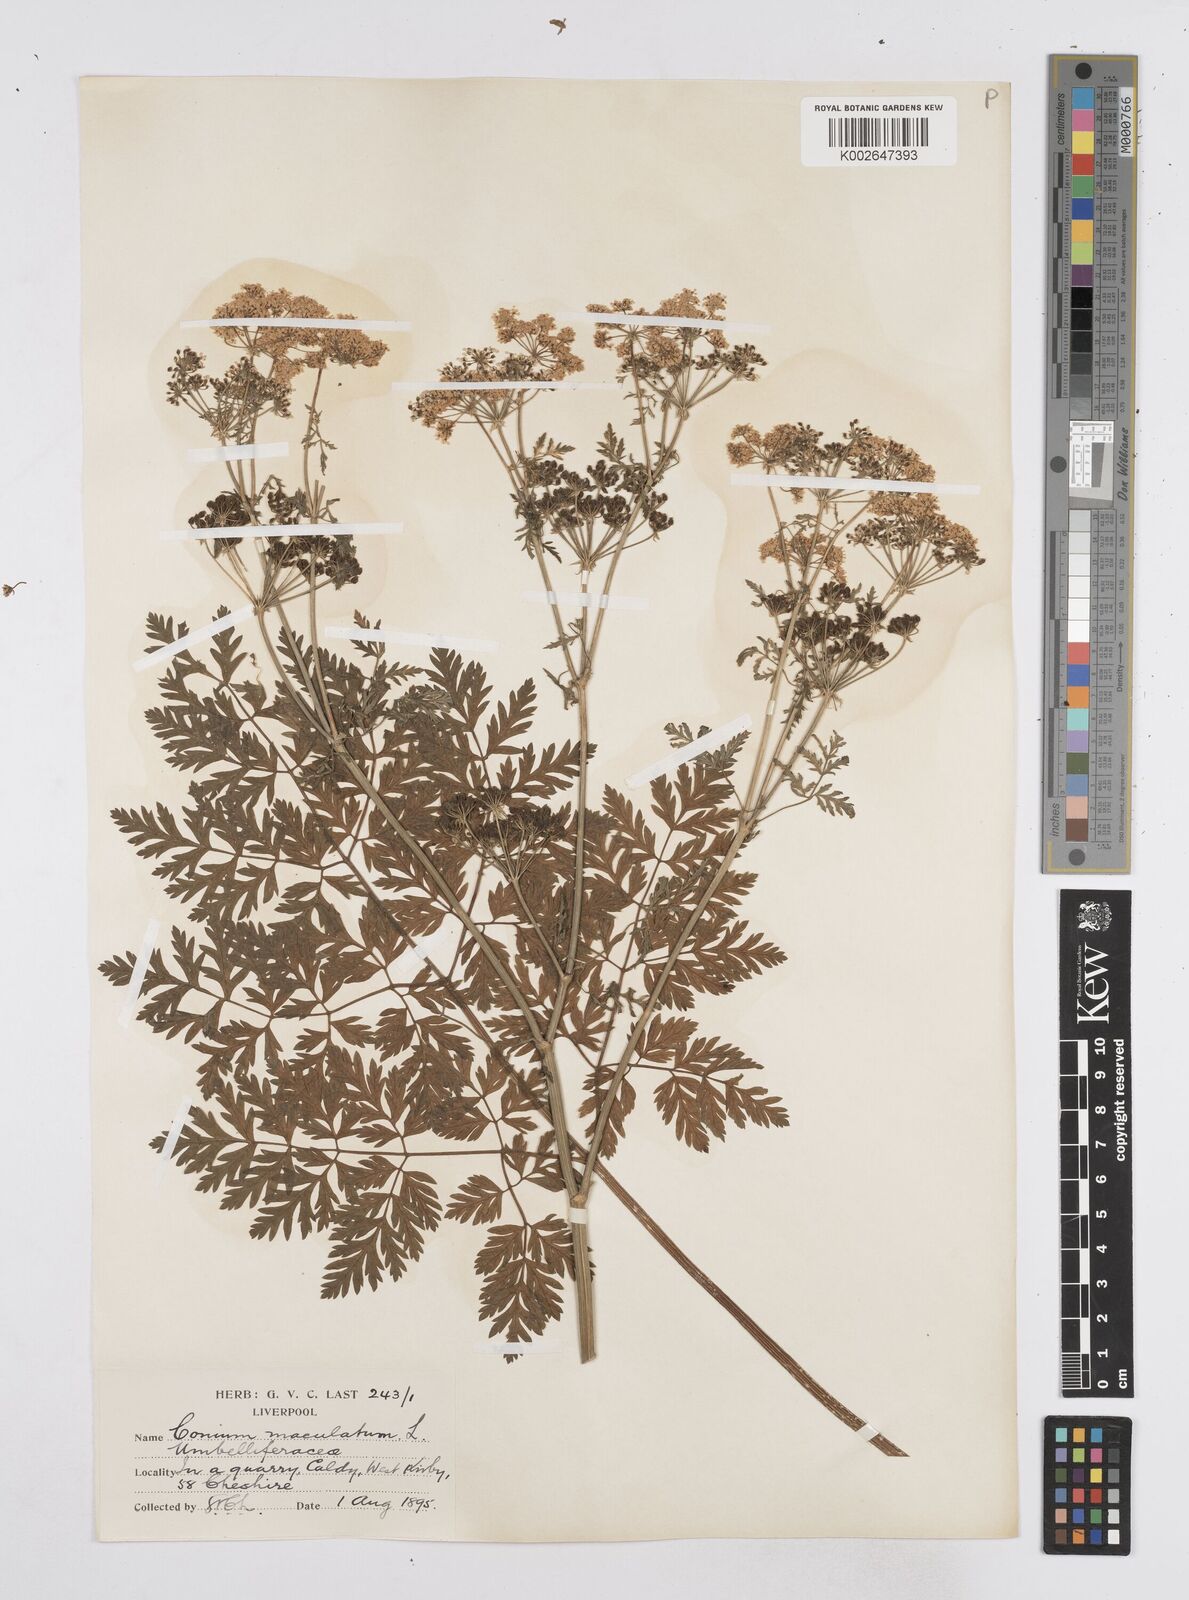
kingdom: Plantae
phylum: Tracheophyta
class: Magnoliopsida
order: Apiales
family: Apiaceae
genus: Conium
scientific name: Conium maculatum
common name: Hemlock
